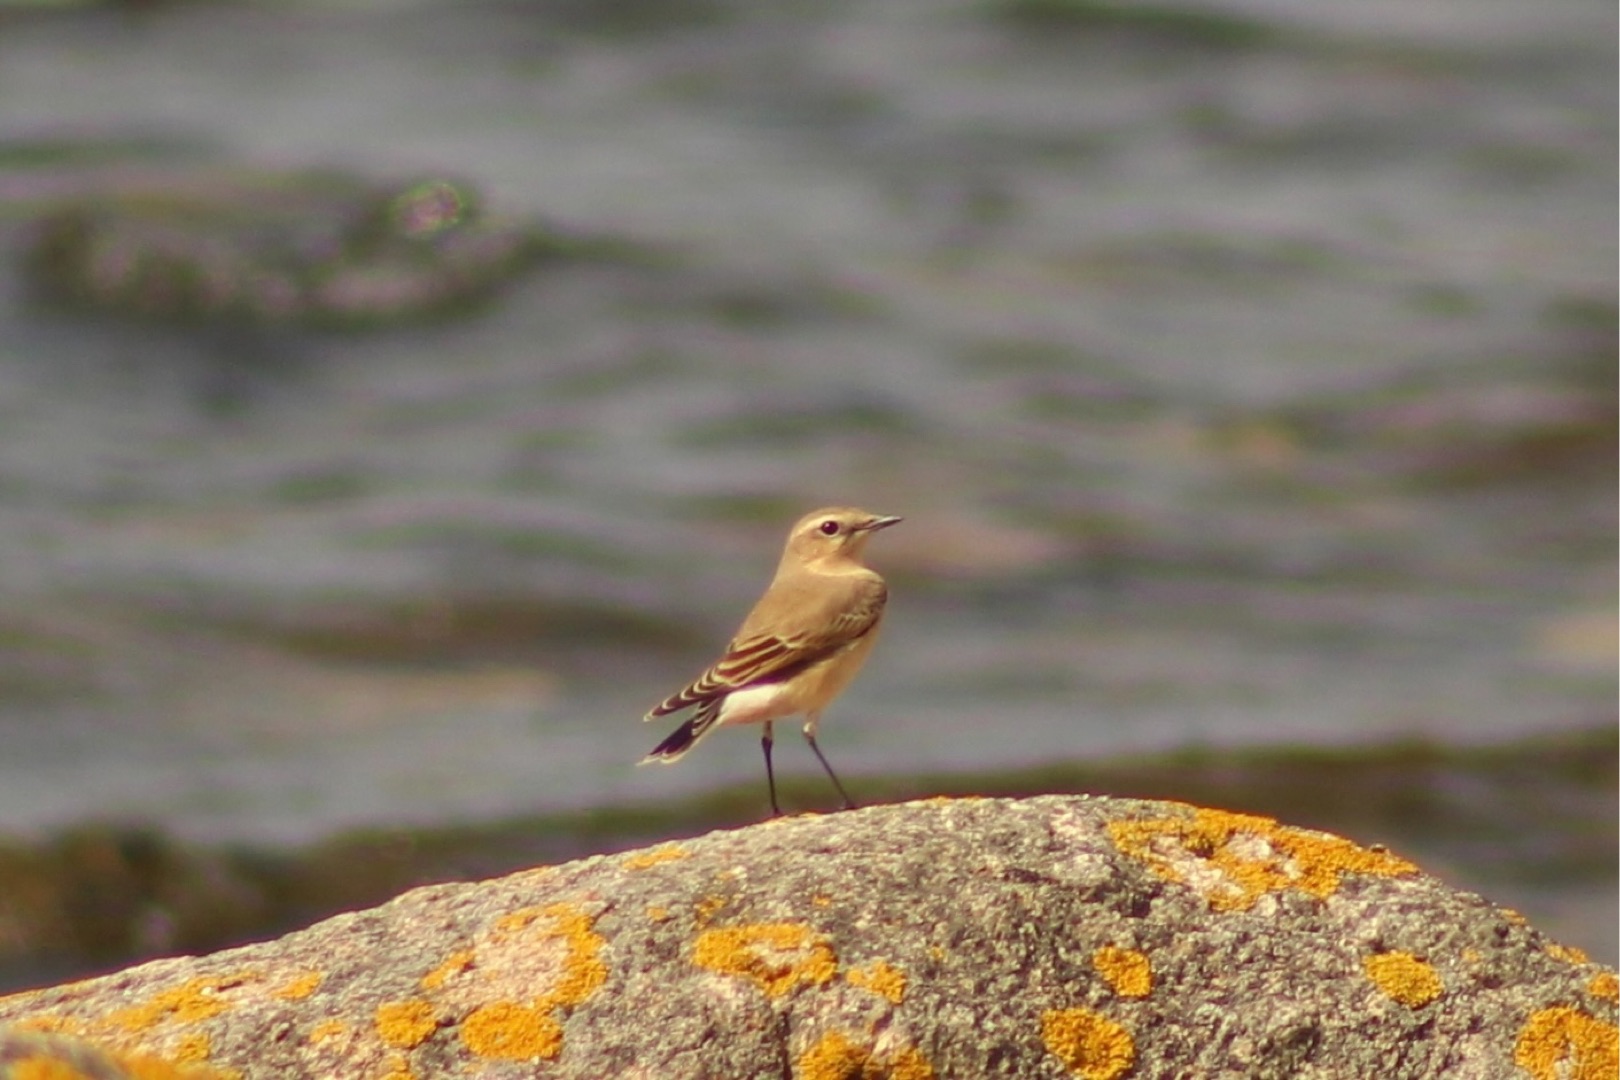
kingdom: Animalia
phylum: Chordata
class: Aves
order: Passeriformes
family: Muscicapidae
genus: Oenanthe
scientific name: Oenanthe oenanthe
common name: Stenpikker
